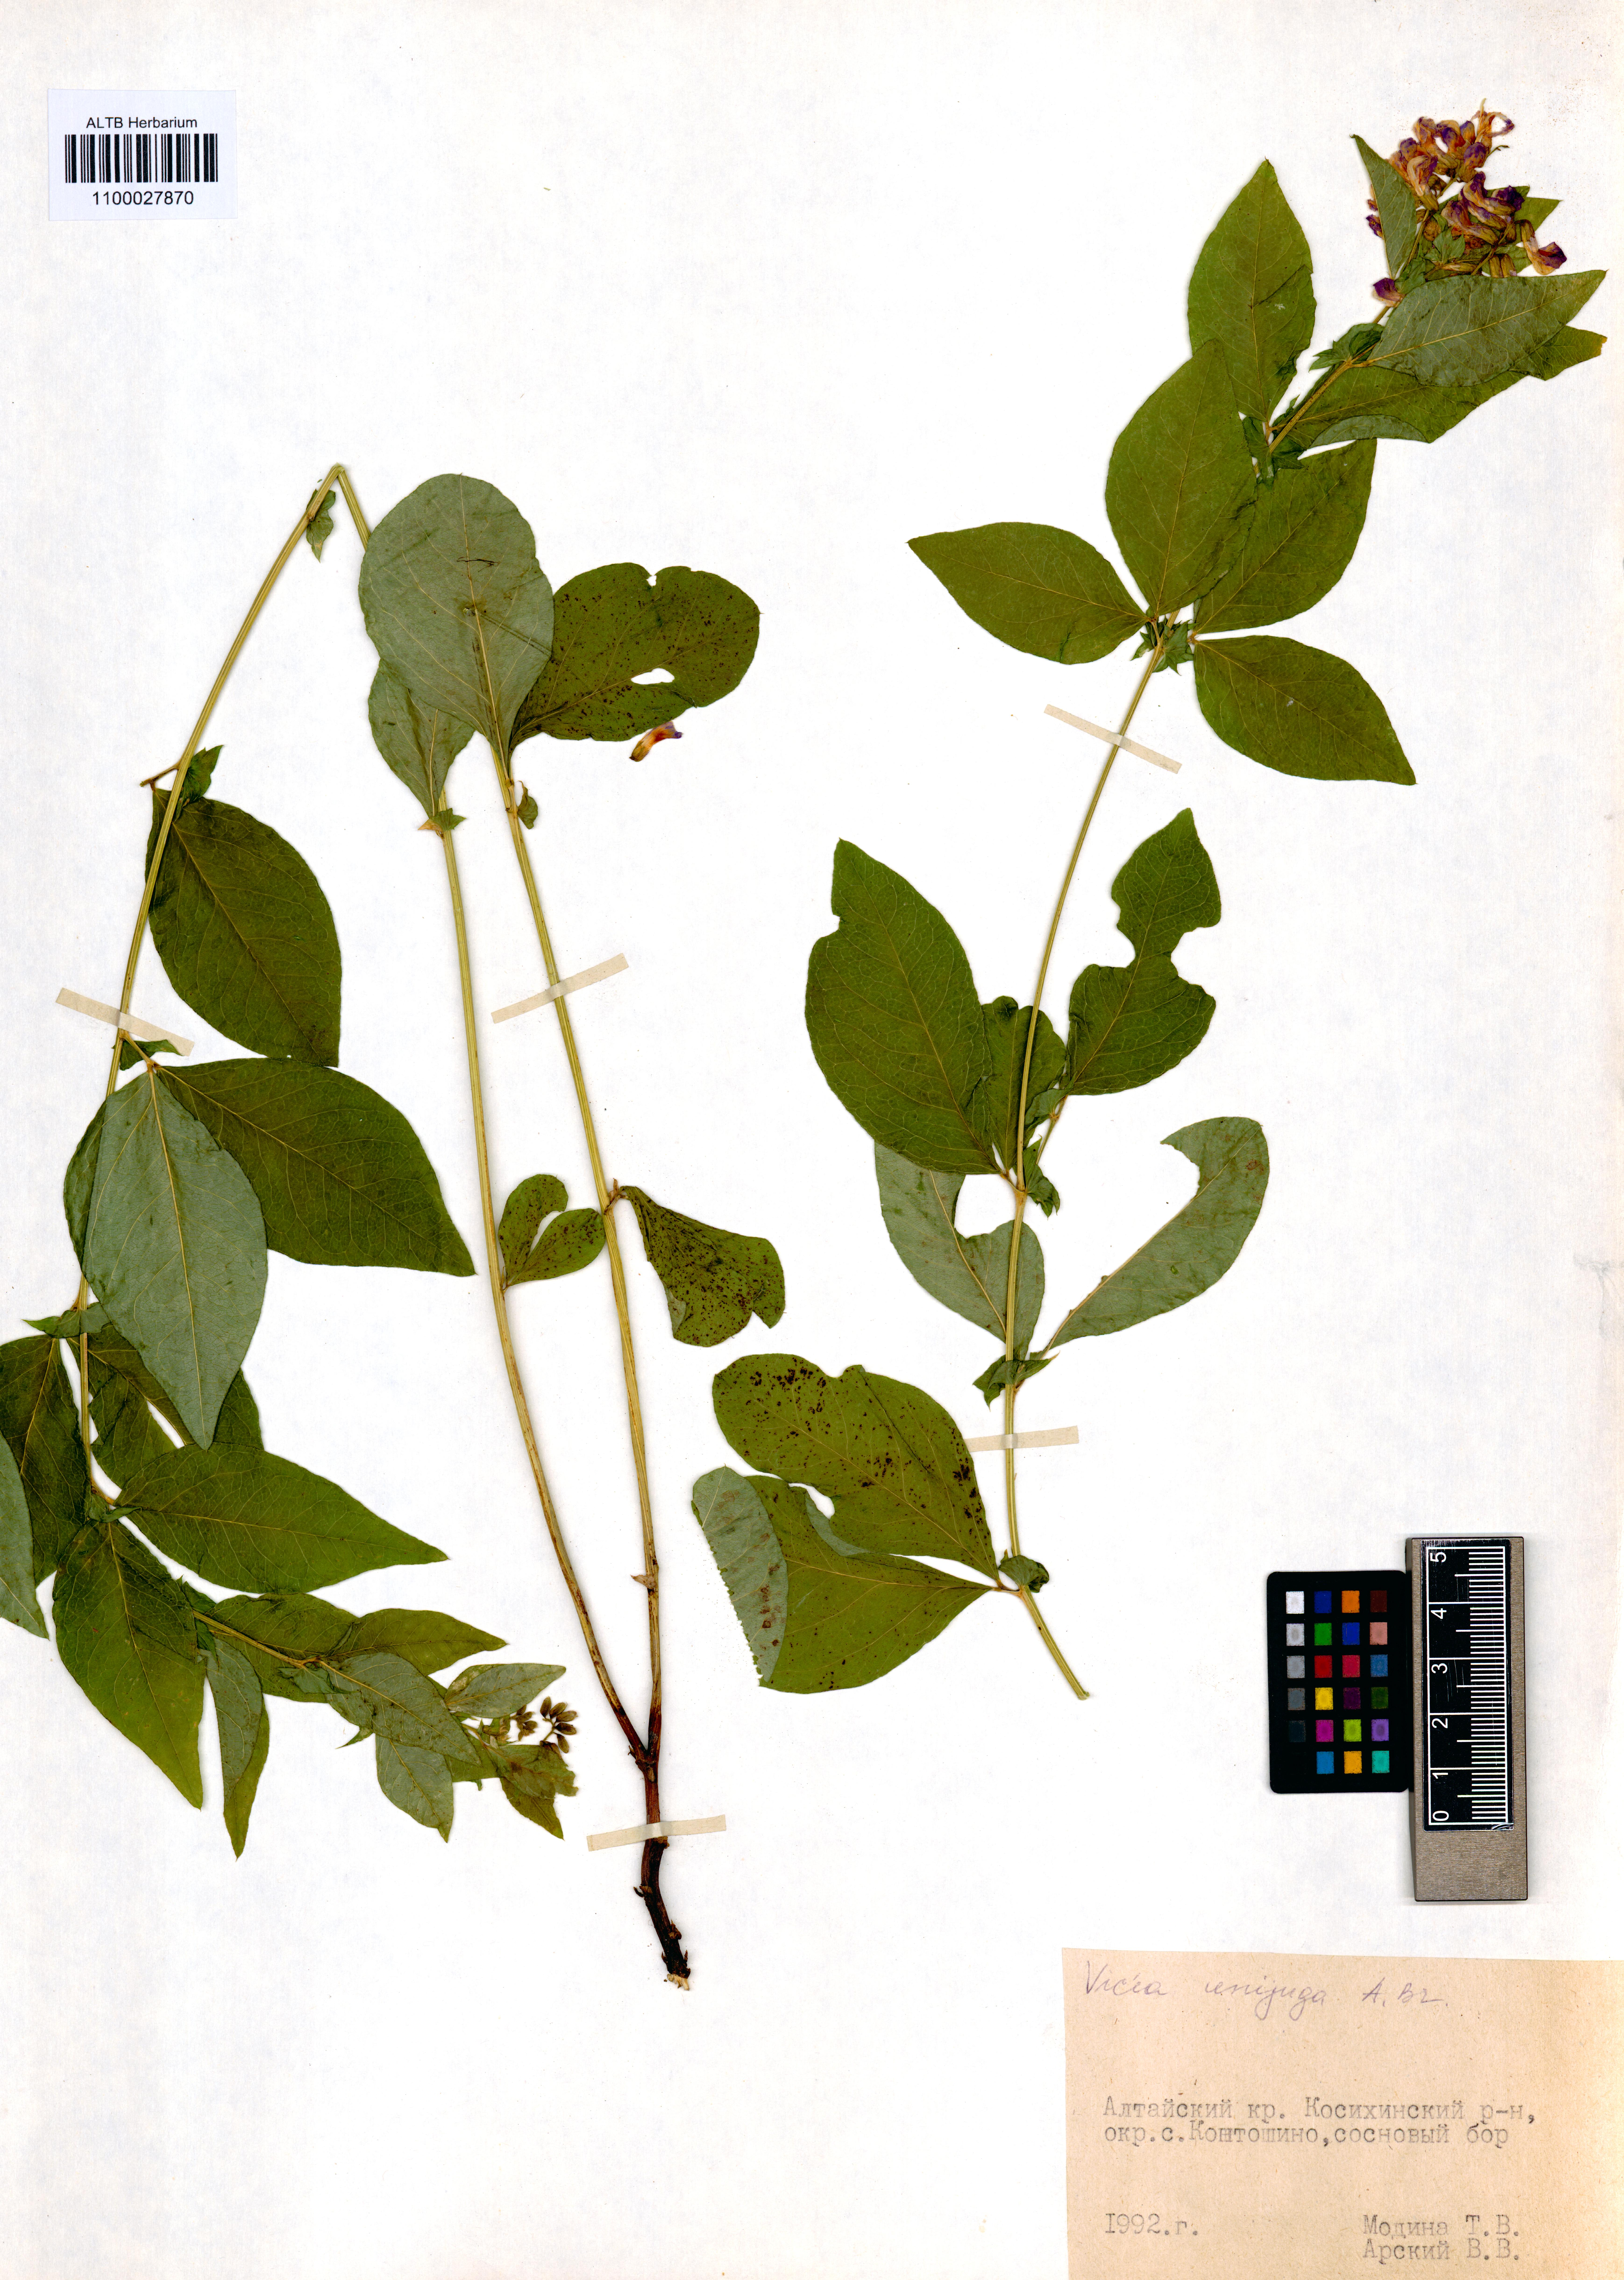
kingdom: Plantae
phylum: Tracheophyta
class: Magnoliopsida
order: Fabales
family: Fabaceae
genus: Vicia
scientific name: Vicia unijuga
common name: Two-leaf vetch
